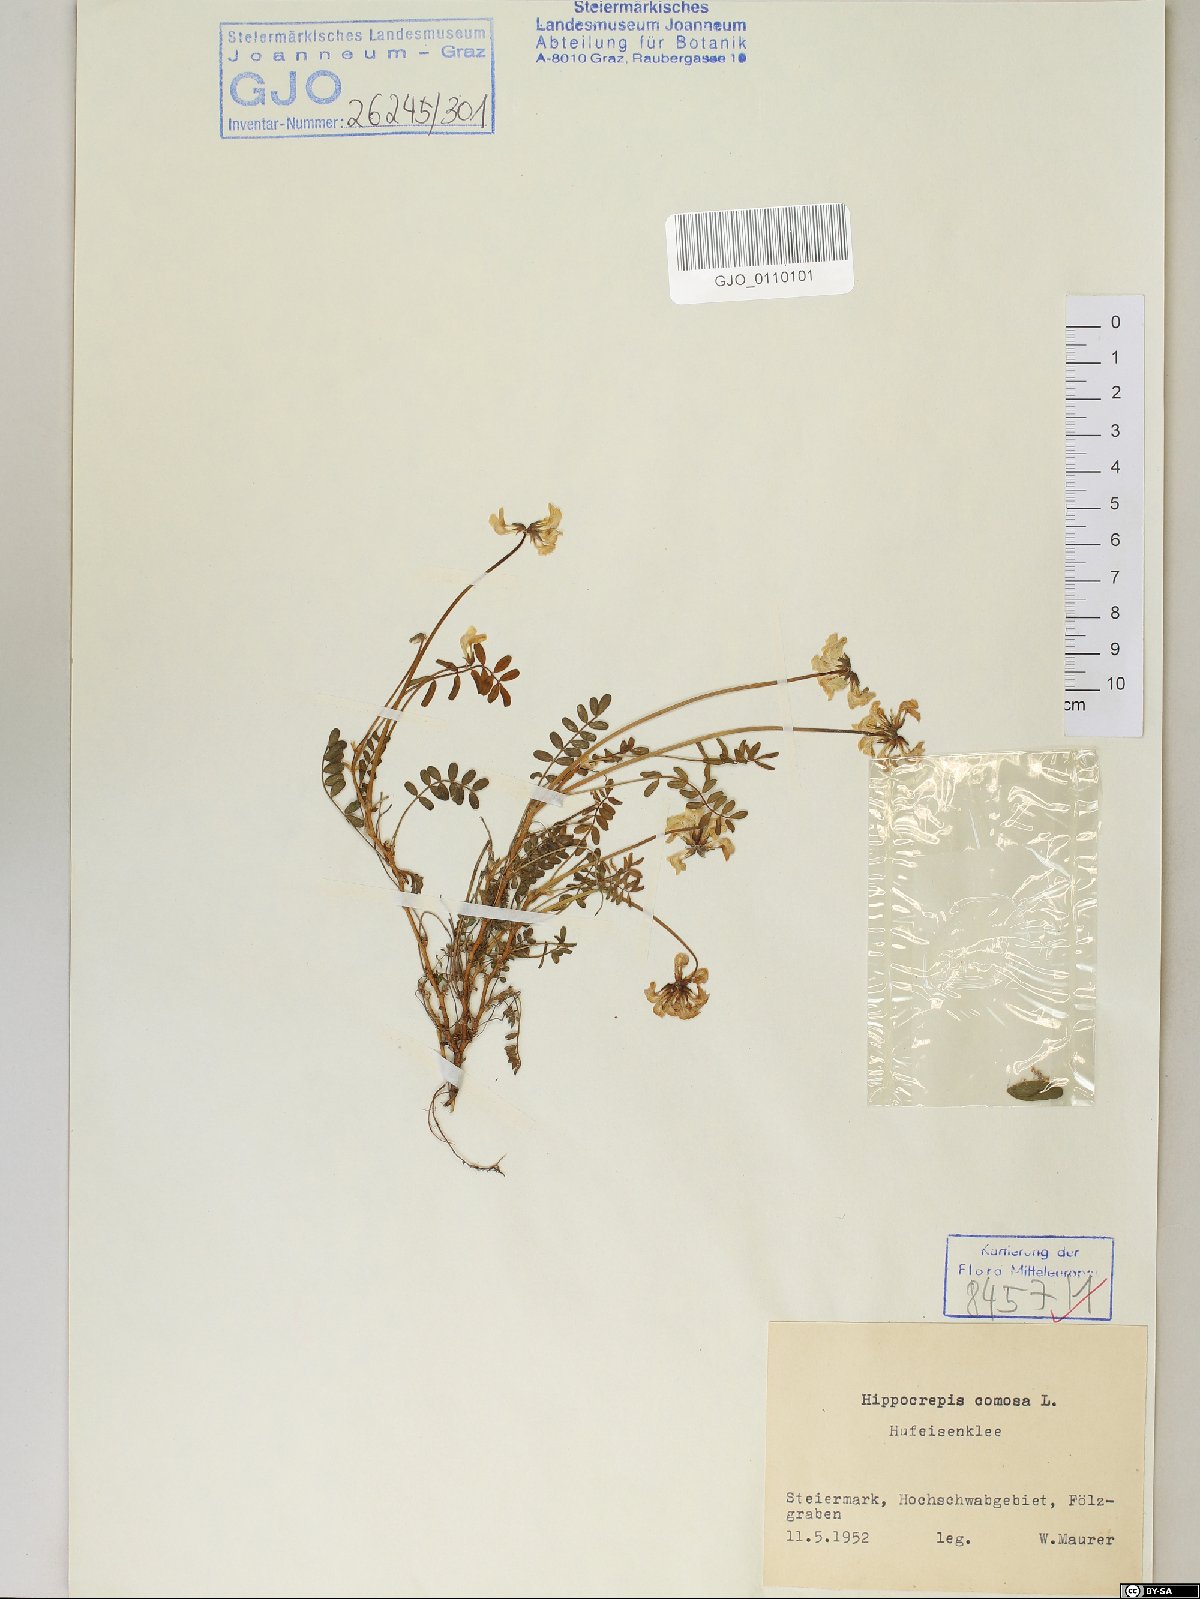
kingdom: Plantae
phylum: Tracheophyta
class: Magnoliopsida
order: Fabales
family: Fabaceae
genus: Hippocrepis
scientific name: Hippocrepis comosa
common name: Horseshoe vetch
